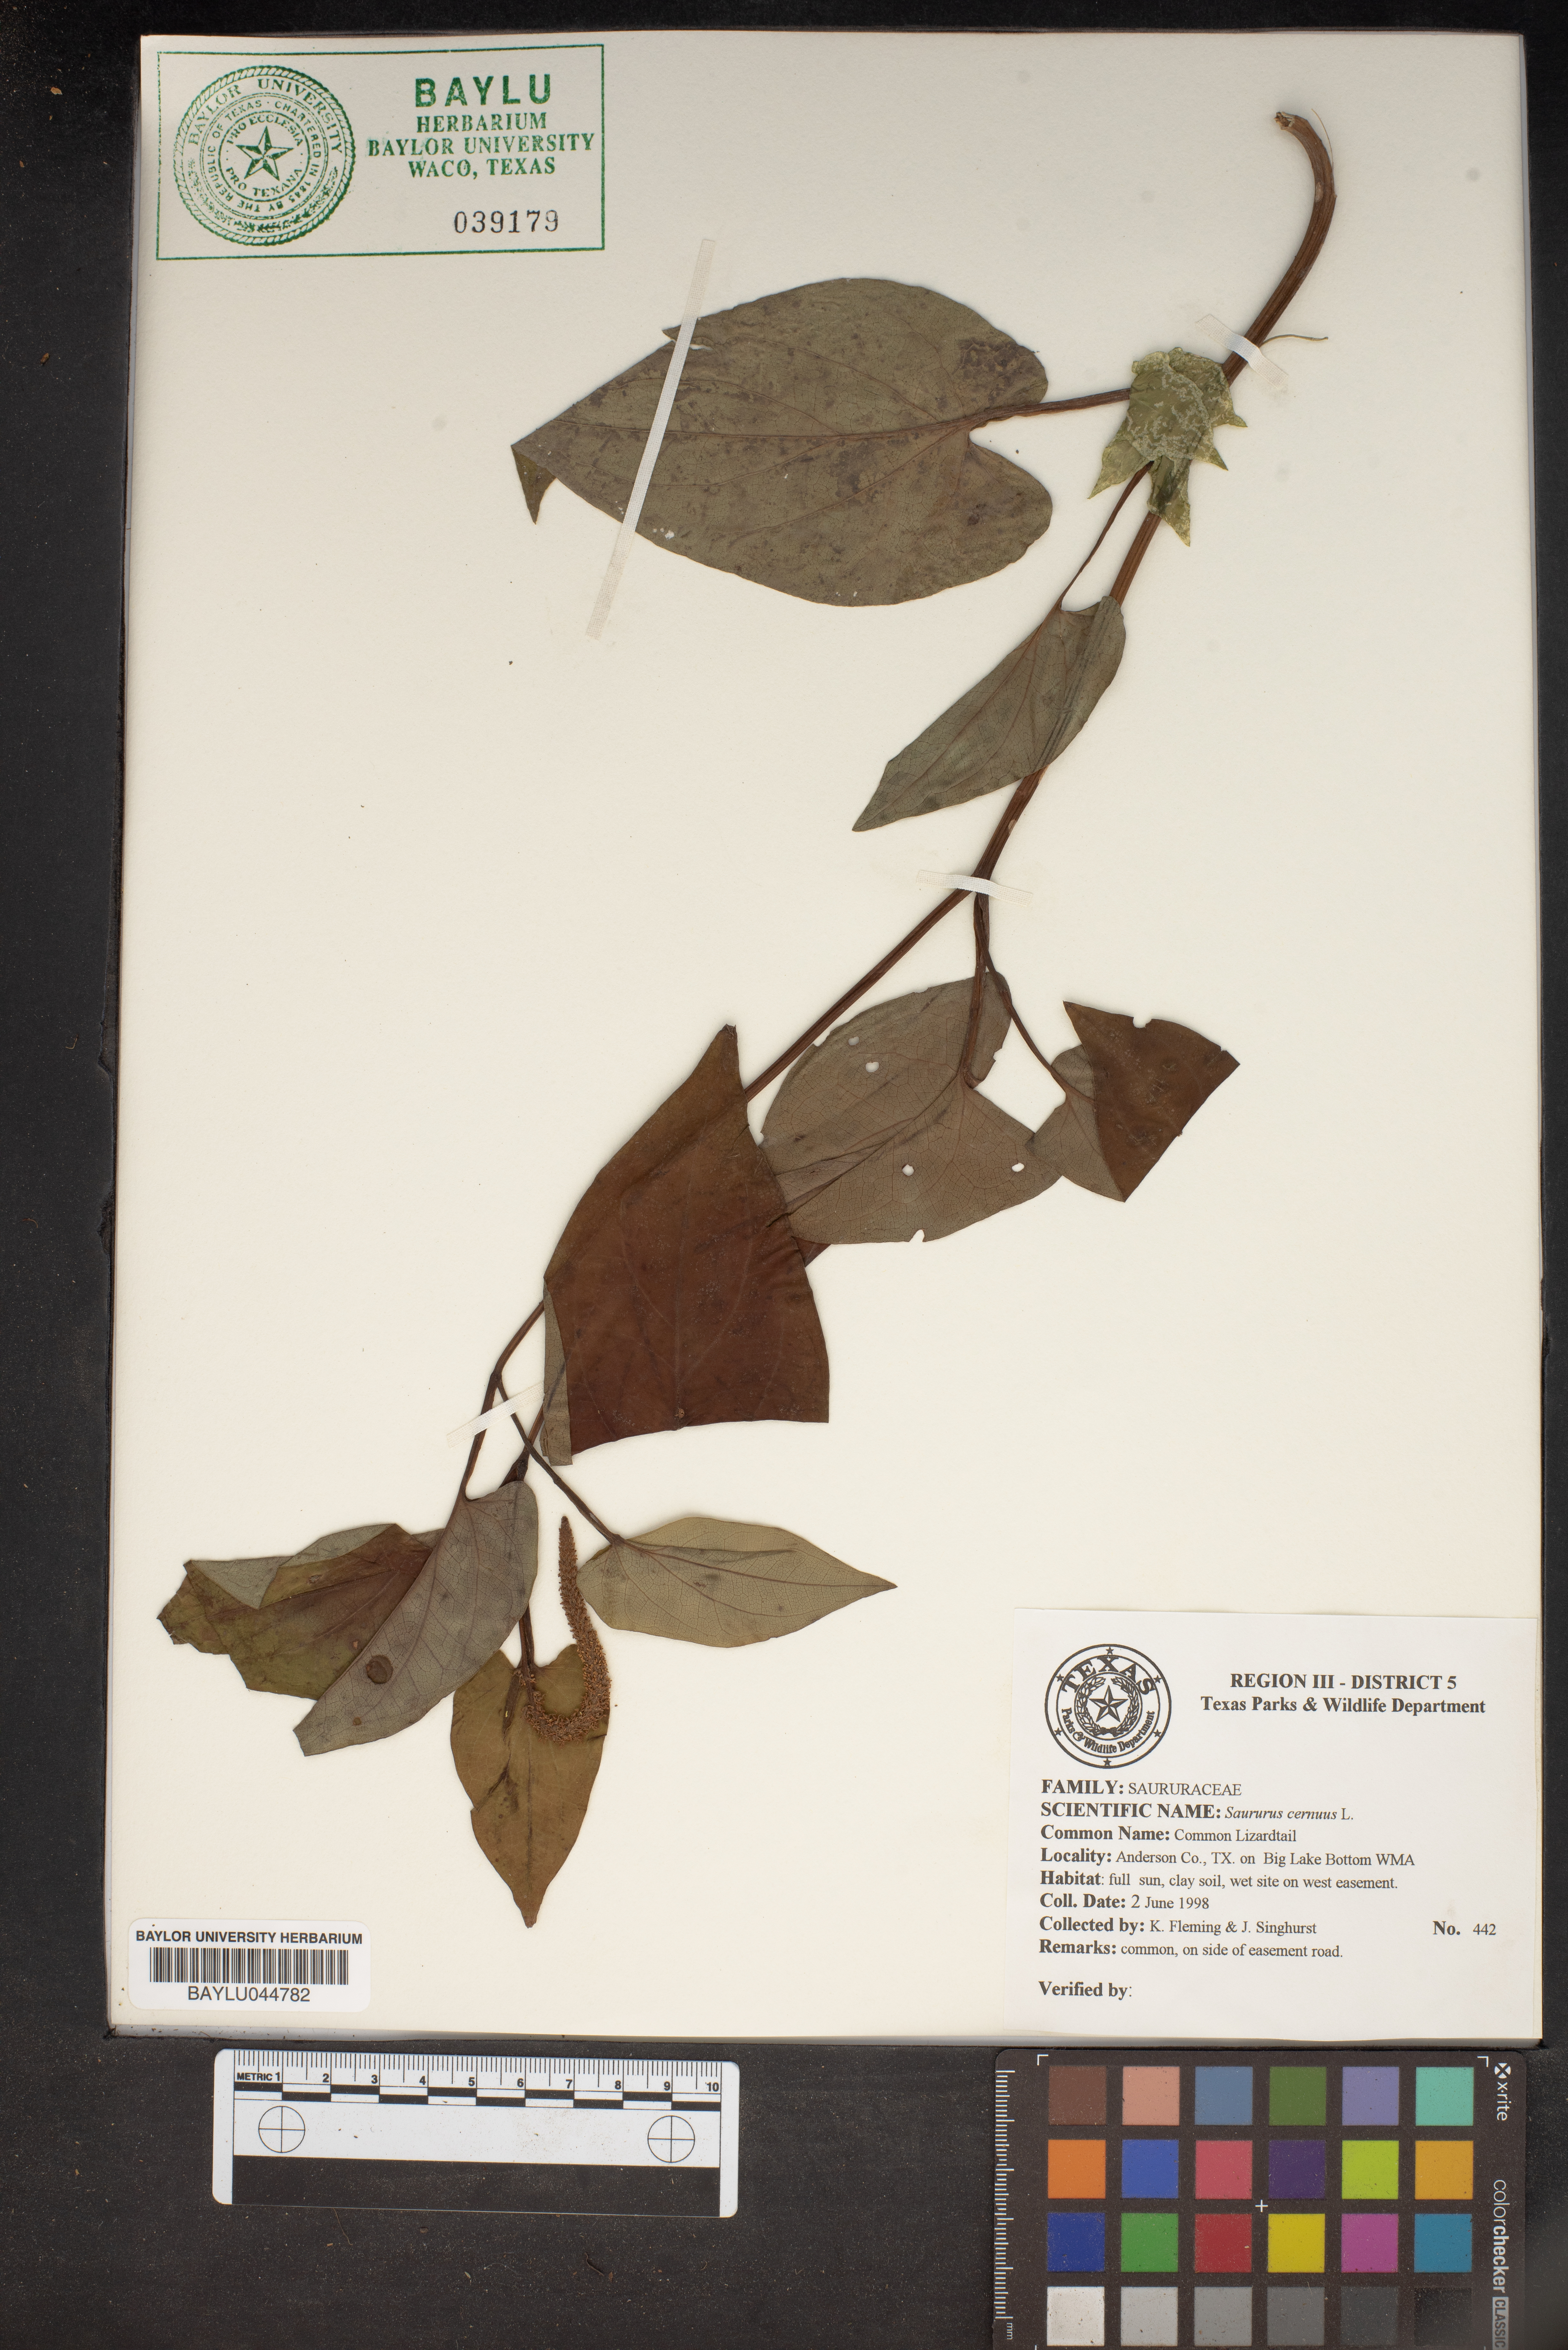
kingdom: Plantae
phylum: Tracheophyta
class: Magnoliopsida
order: Piperales
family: Saururaceae
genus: Saururus
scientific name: Saururus cernuus
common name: Lizard's-tail
